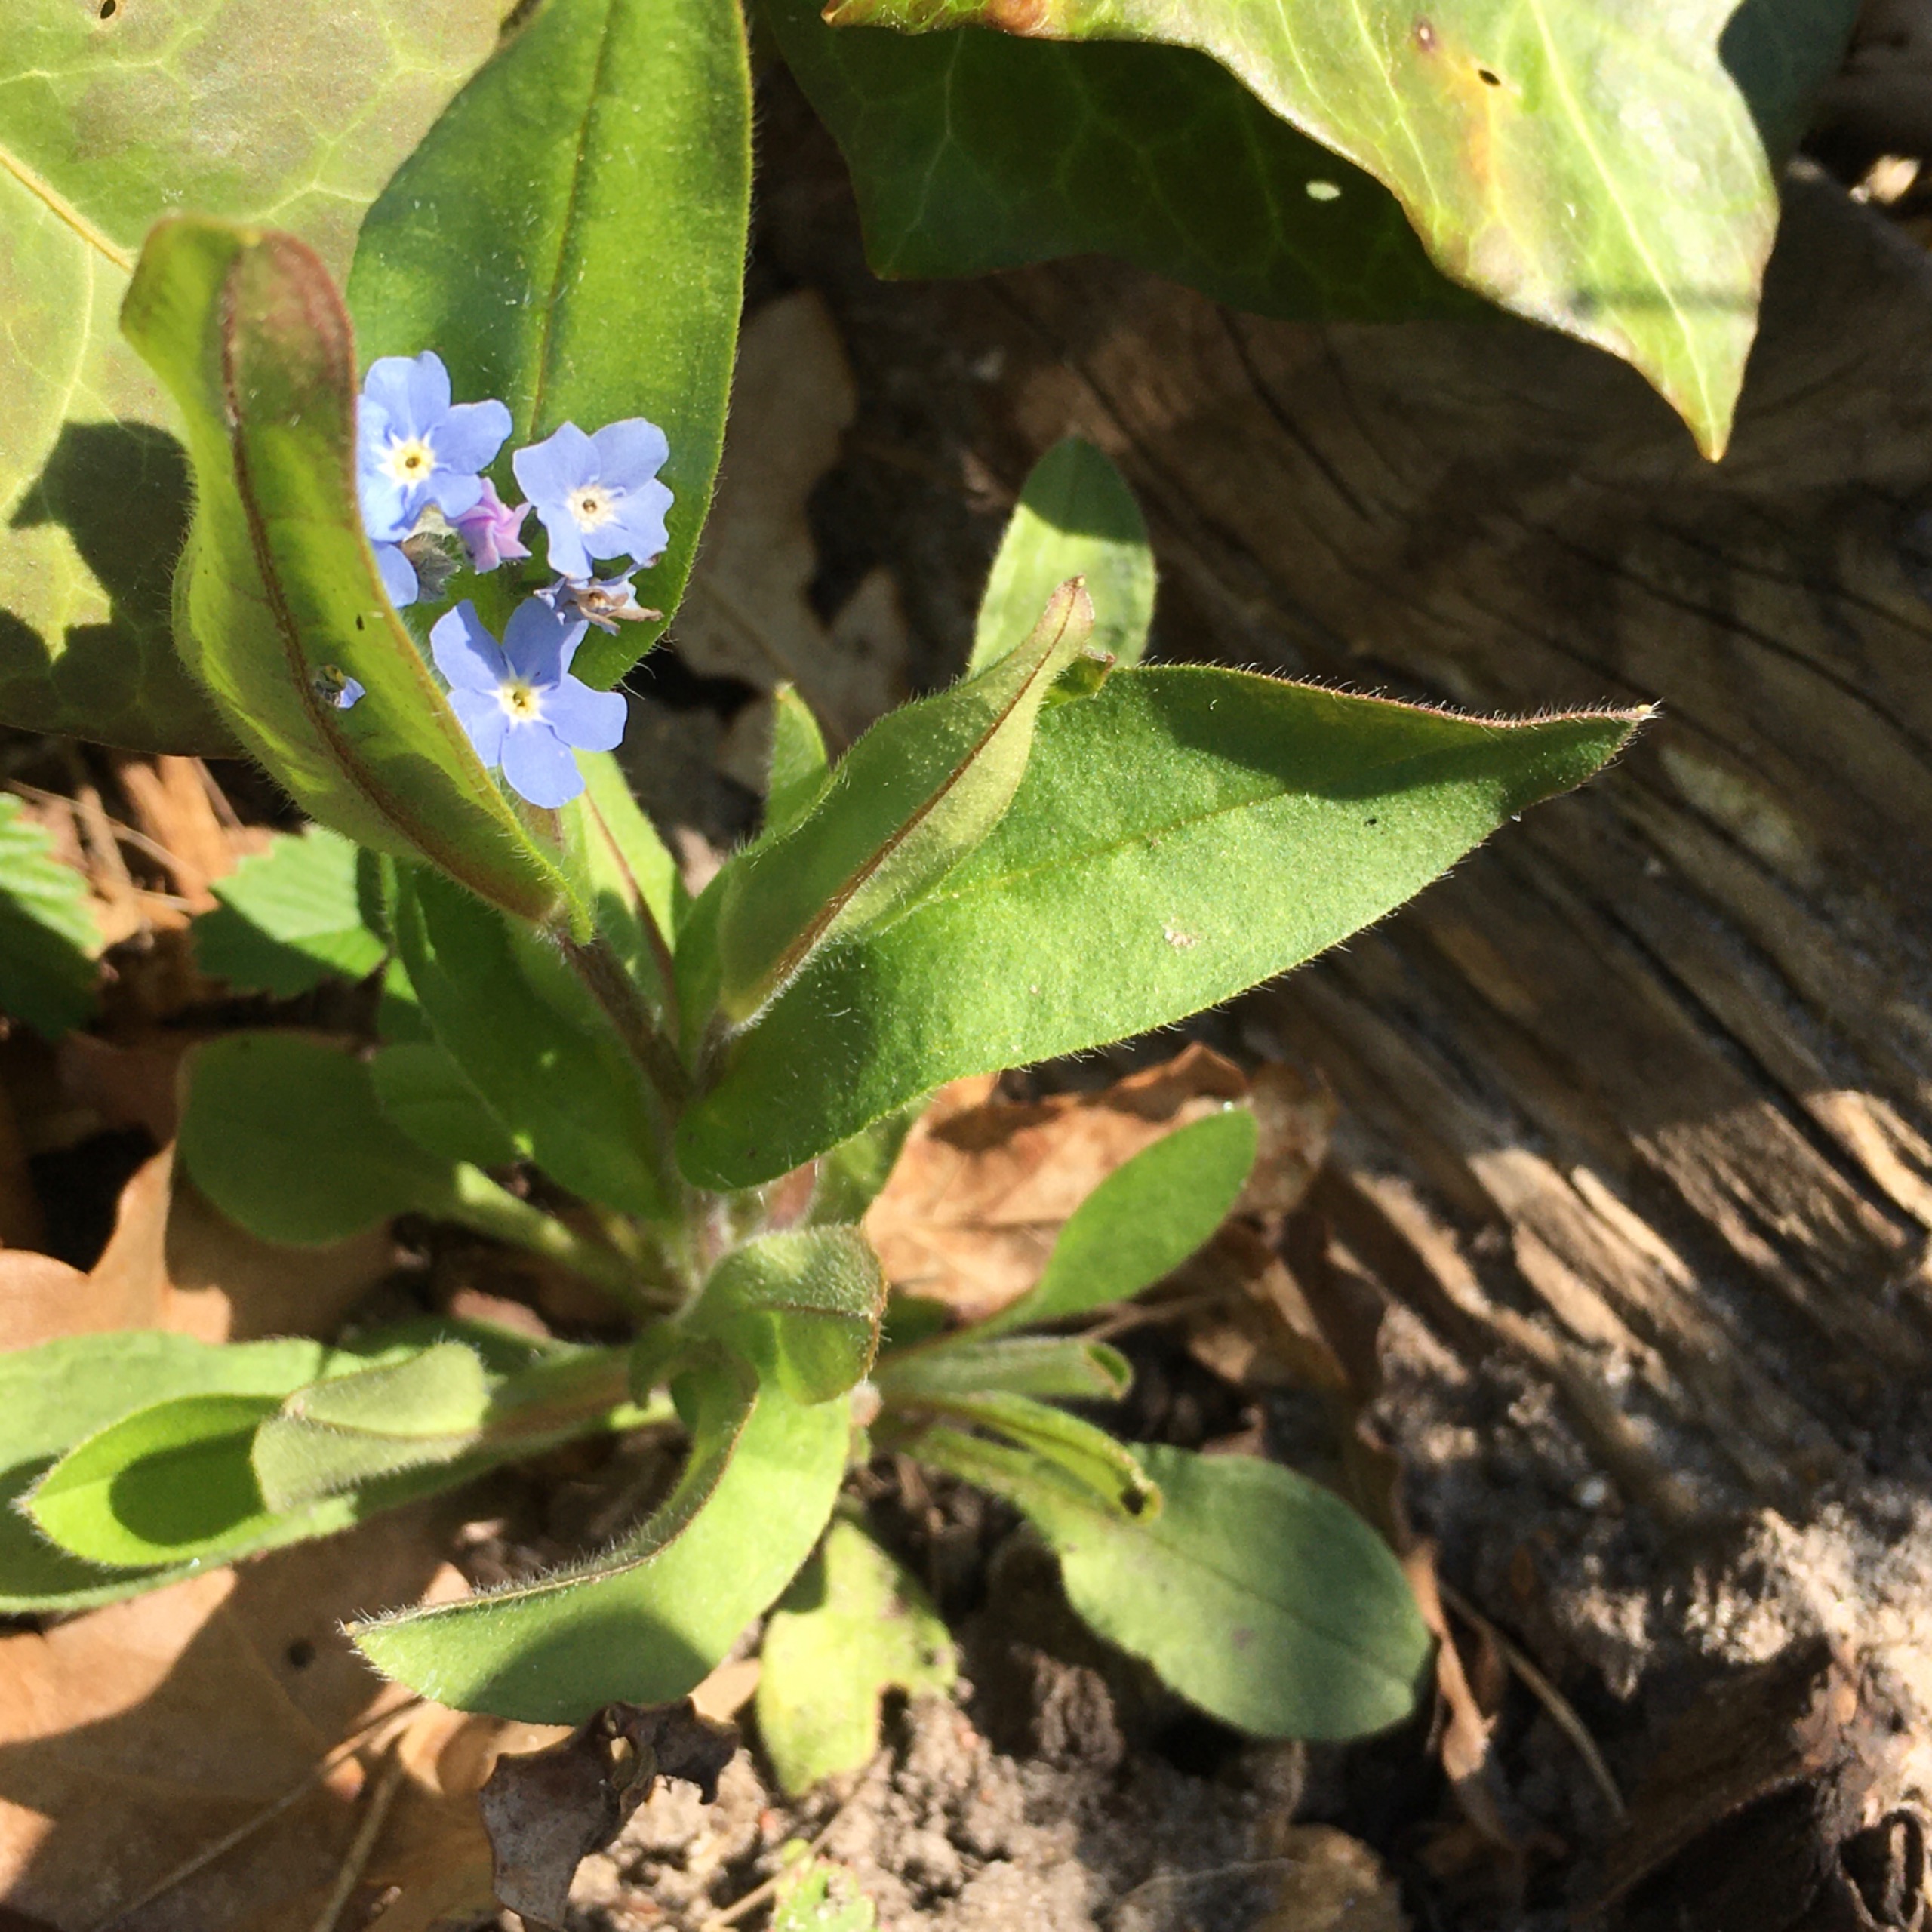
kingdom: Plantae
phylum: Tracheophyta
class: Magnoliopsida
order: Boraginales
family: Boraginaceae
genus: Myosotis
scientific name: Myosotis sylvatica
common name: Skov-forglemmigej
